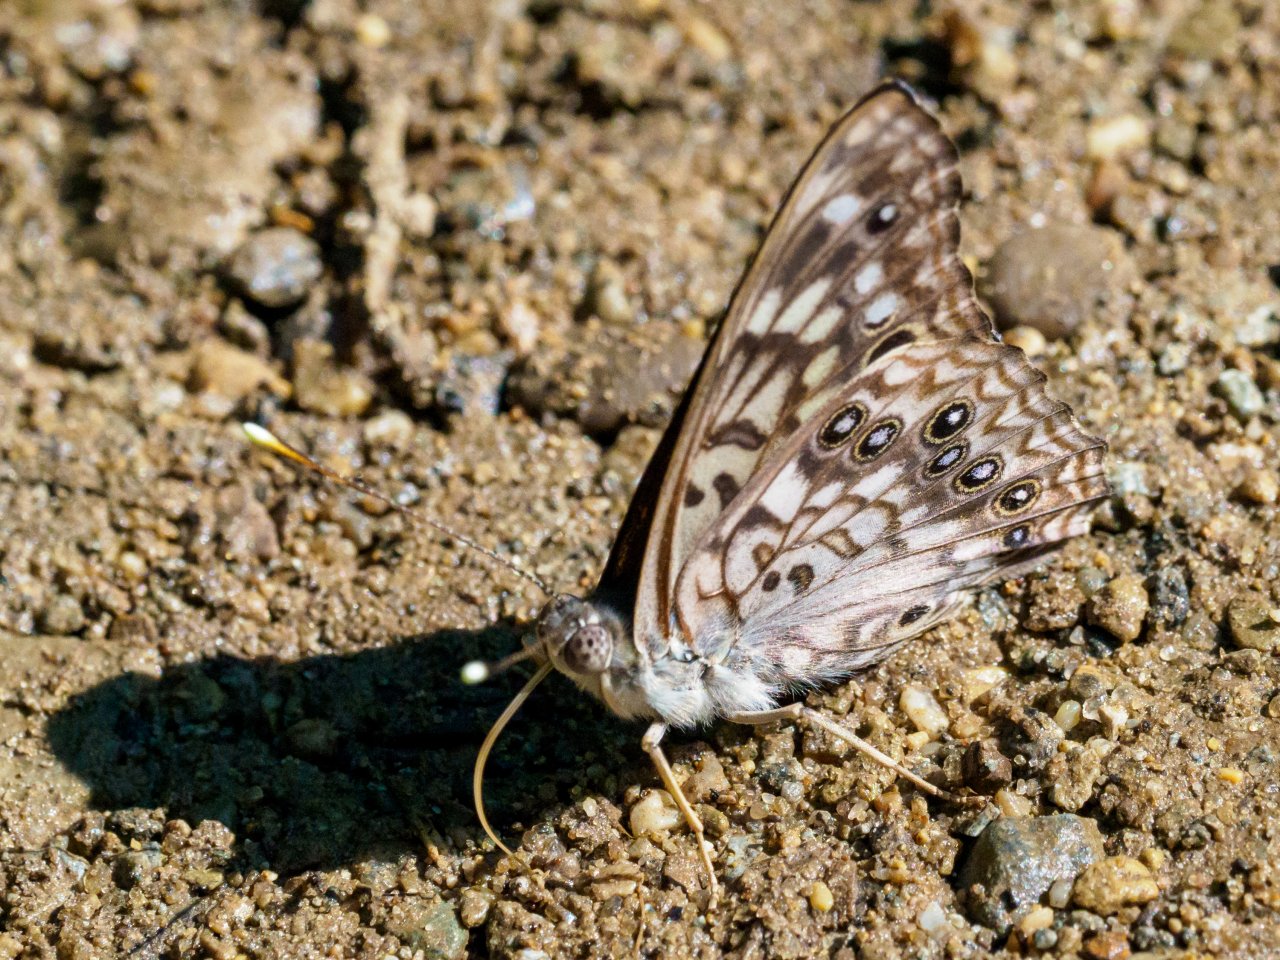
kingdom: Animalia
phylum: Arthropoda
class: Insecta
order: Lepidoptera
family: Nymphalidae
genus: Asterocampa
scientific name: Asterocampa celtis
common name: Hackberry Emperor
